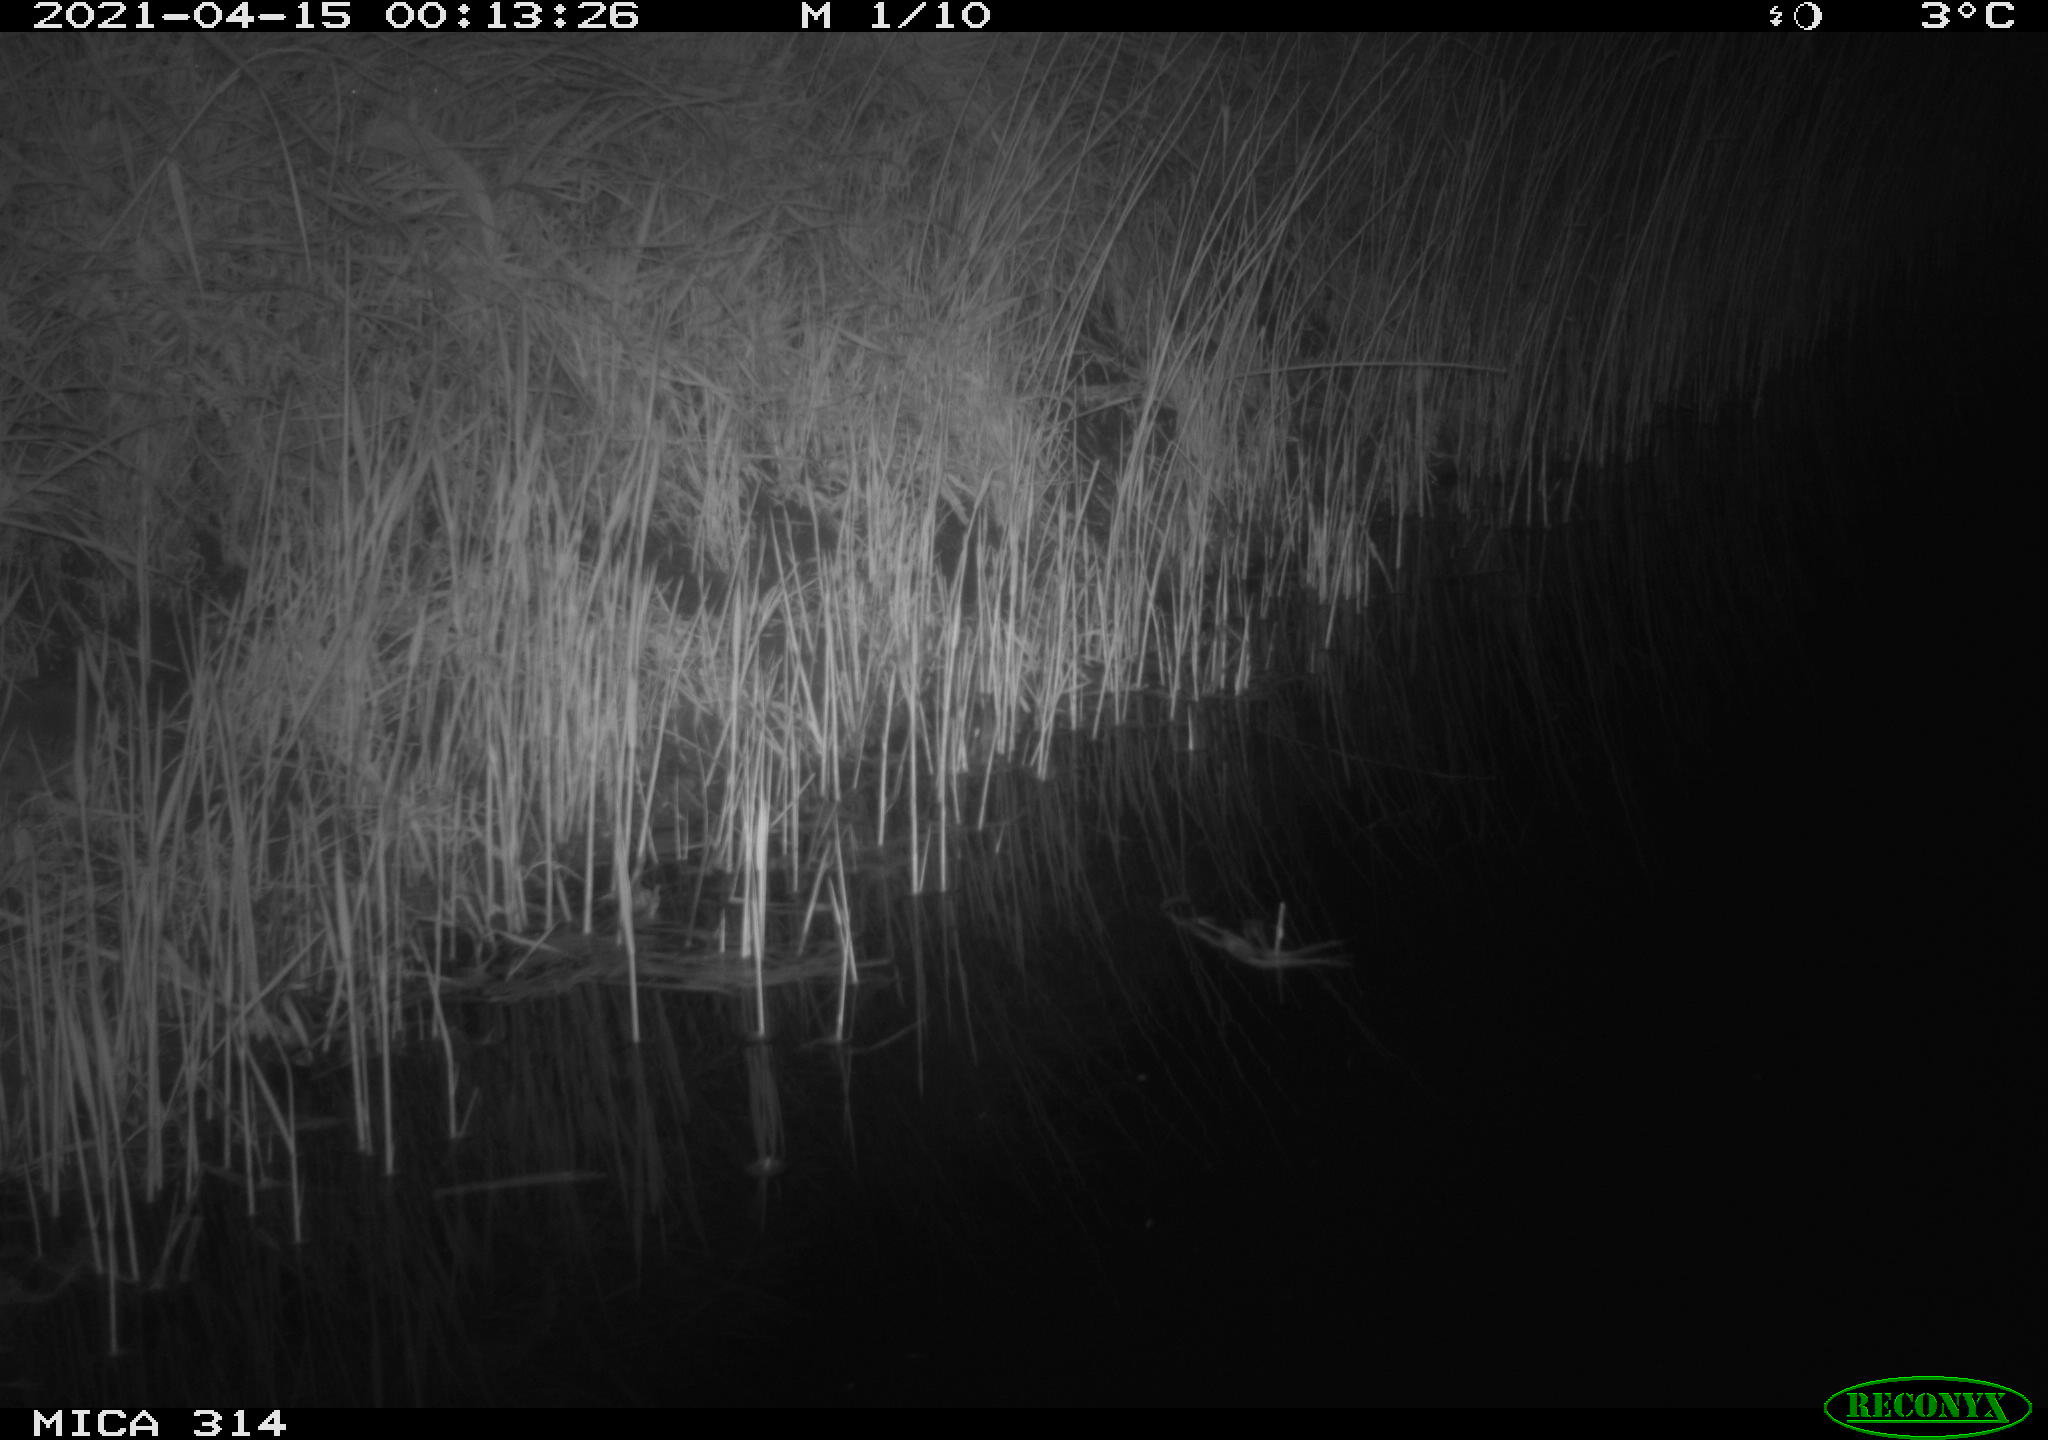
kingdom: Animalia
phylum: Chordata
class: Mammalia
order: Rodentia
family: Muridae
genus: Rattus
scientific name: Rattus norvegicus
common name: Brown rat
